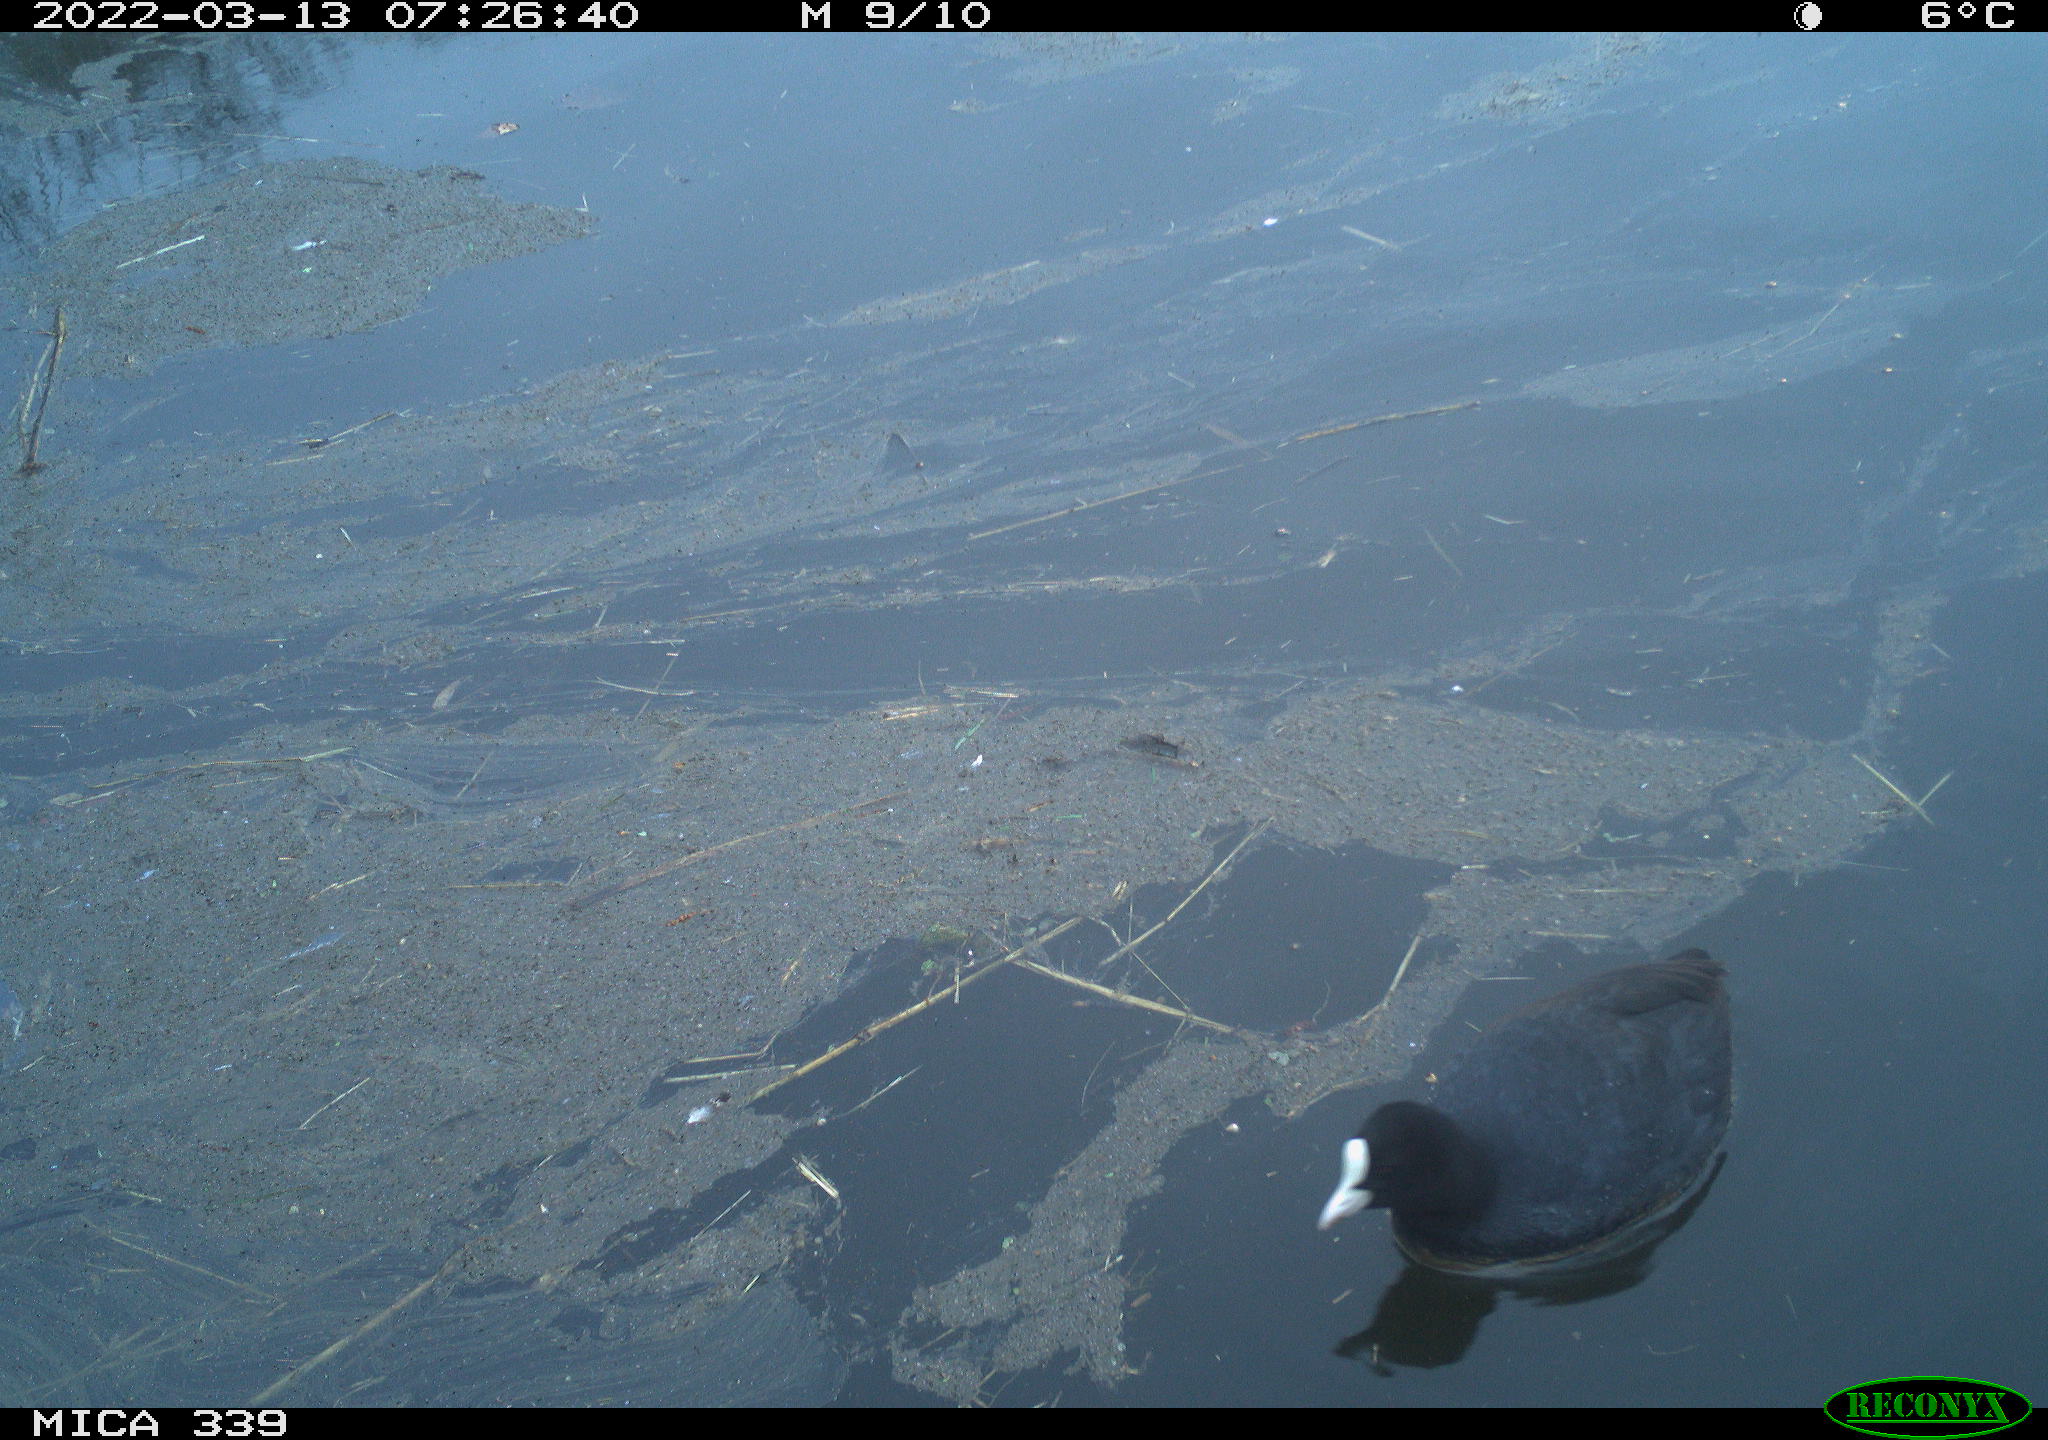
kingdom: Animalia
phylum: Chordata
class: Aves
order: Gruiformes
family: Rallidae
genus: Fulica
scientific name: Fulica atra
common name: Eurasian coot
